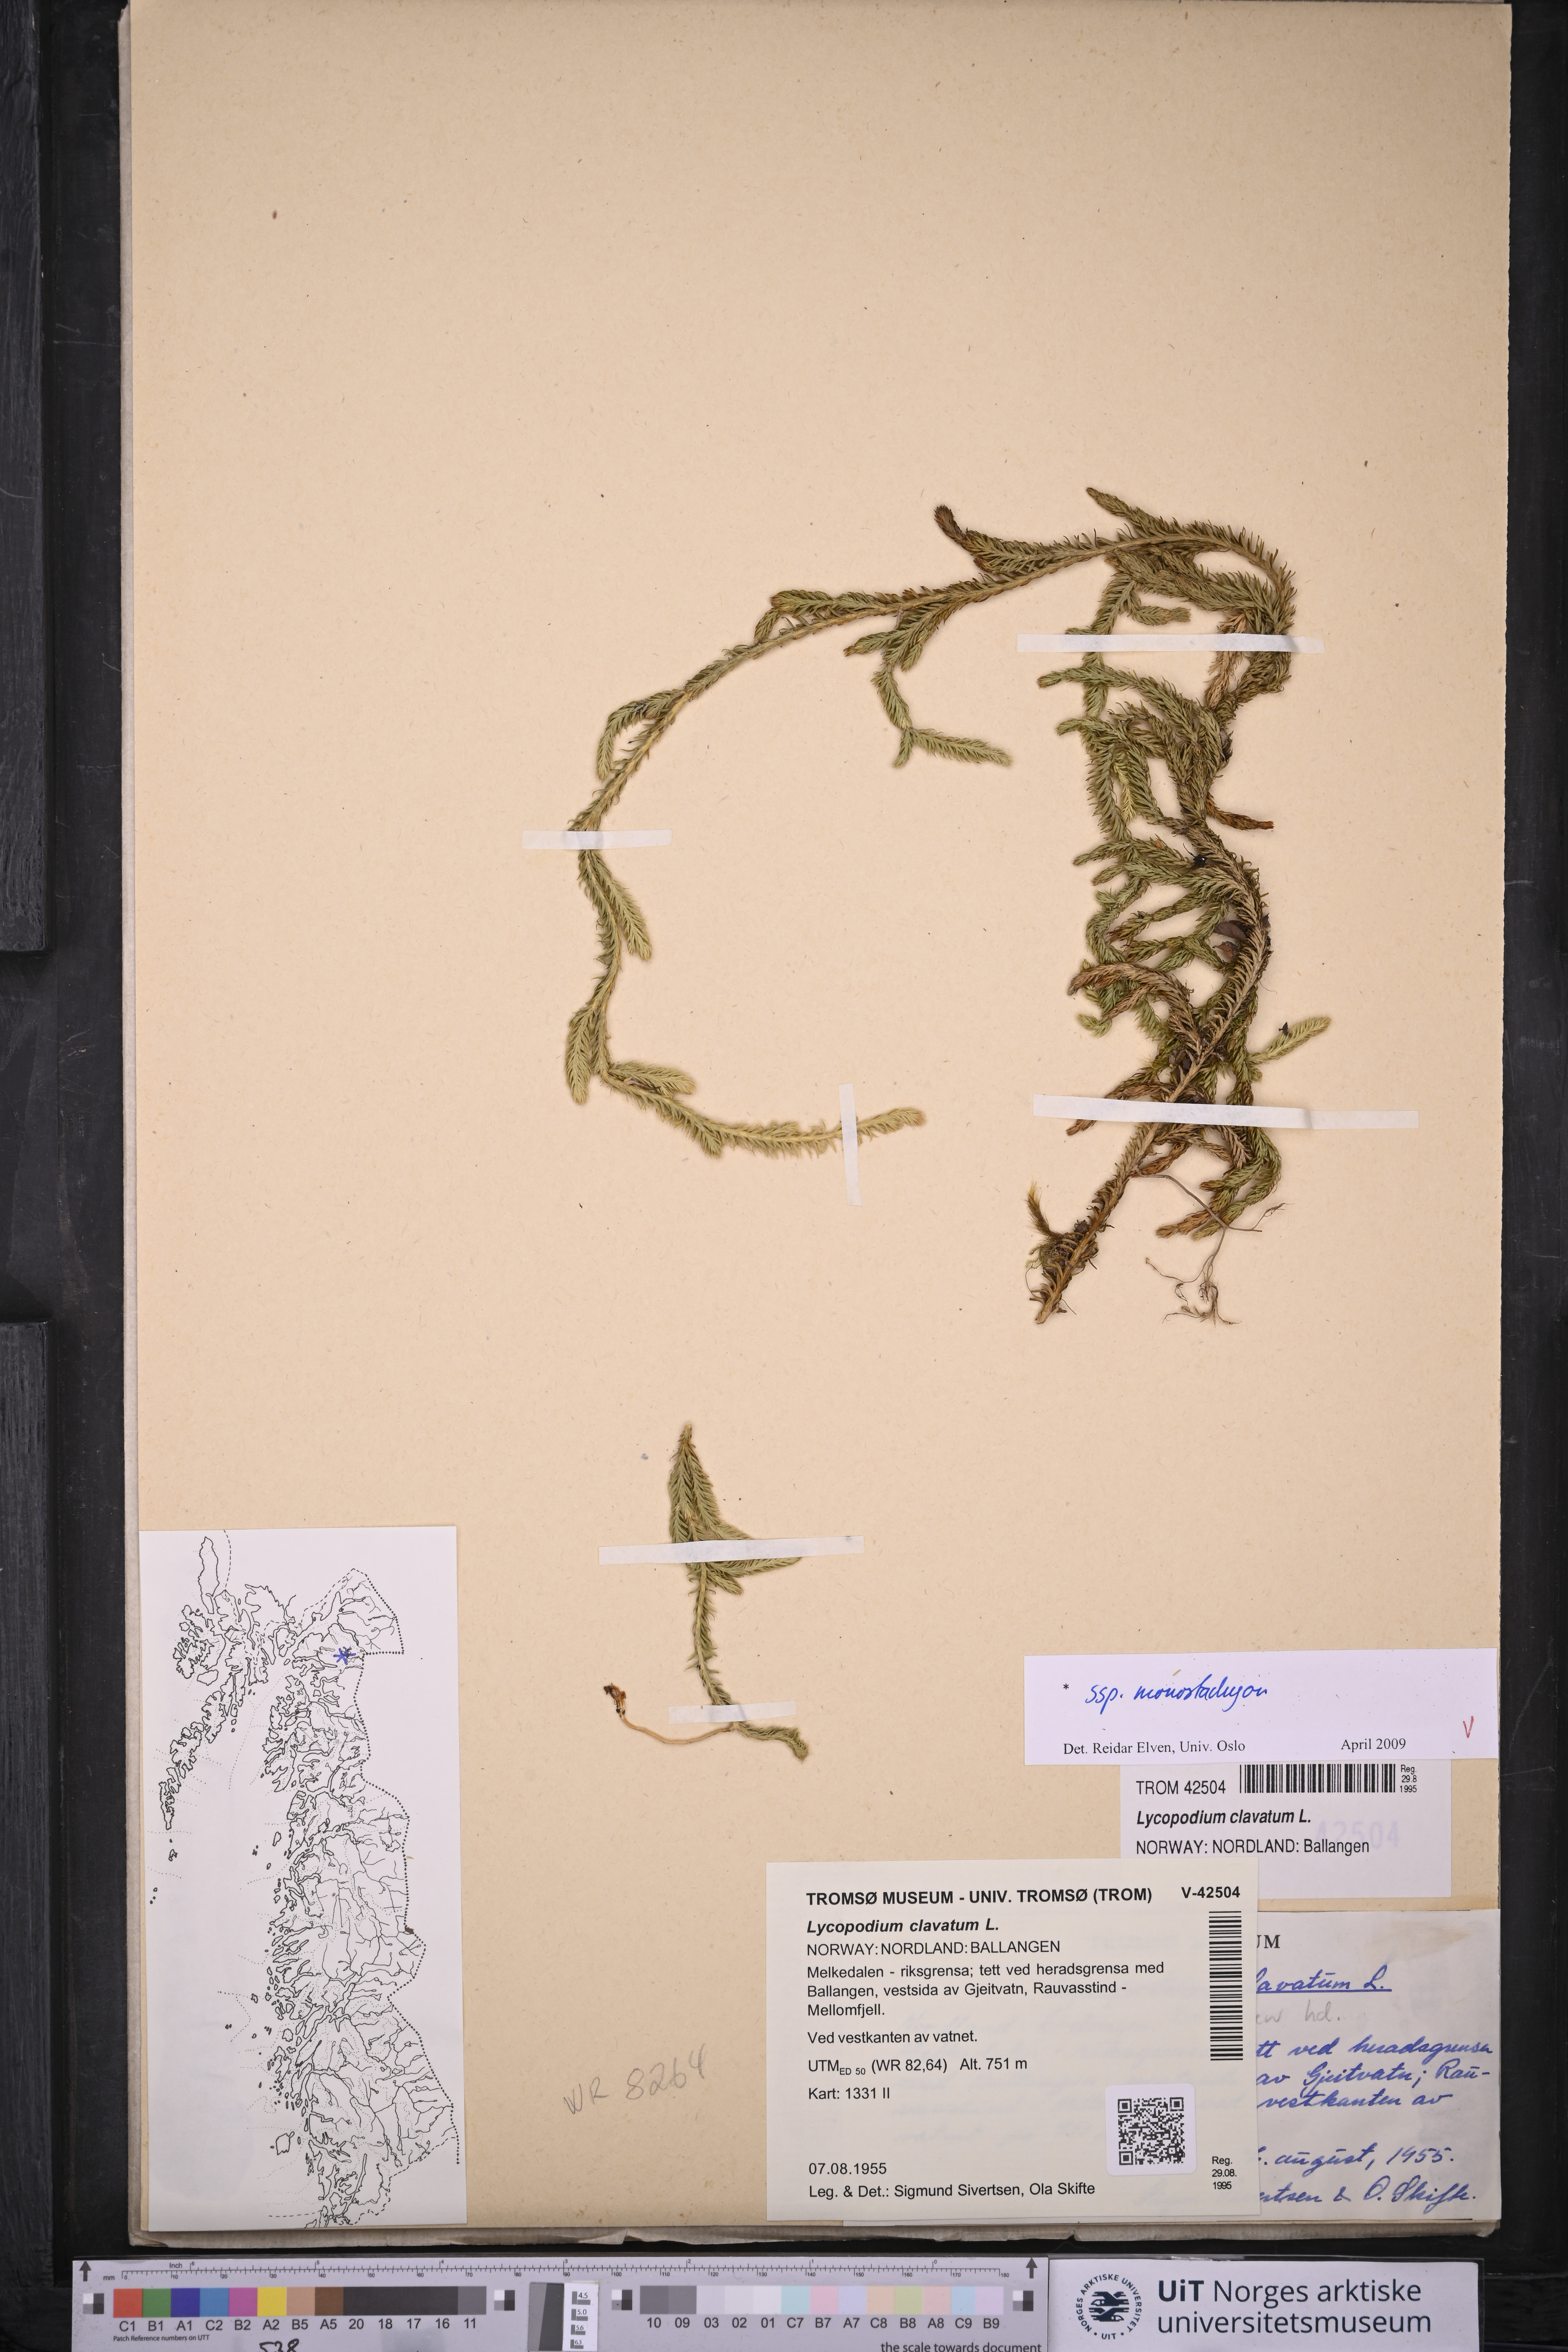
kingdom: Plantae
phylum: Tracheophyta
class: Lycopodiopsida
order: Lycopodiales
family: Lycopodiaceae
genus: Lycopodium
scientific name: Lycopodium lagopus
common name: One-cone clubmoss
